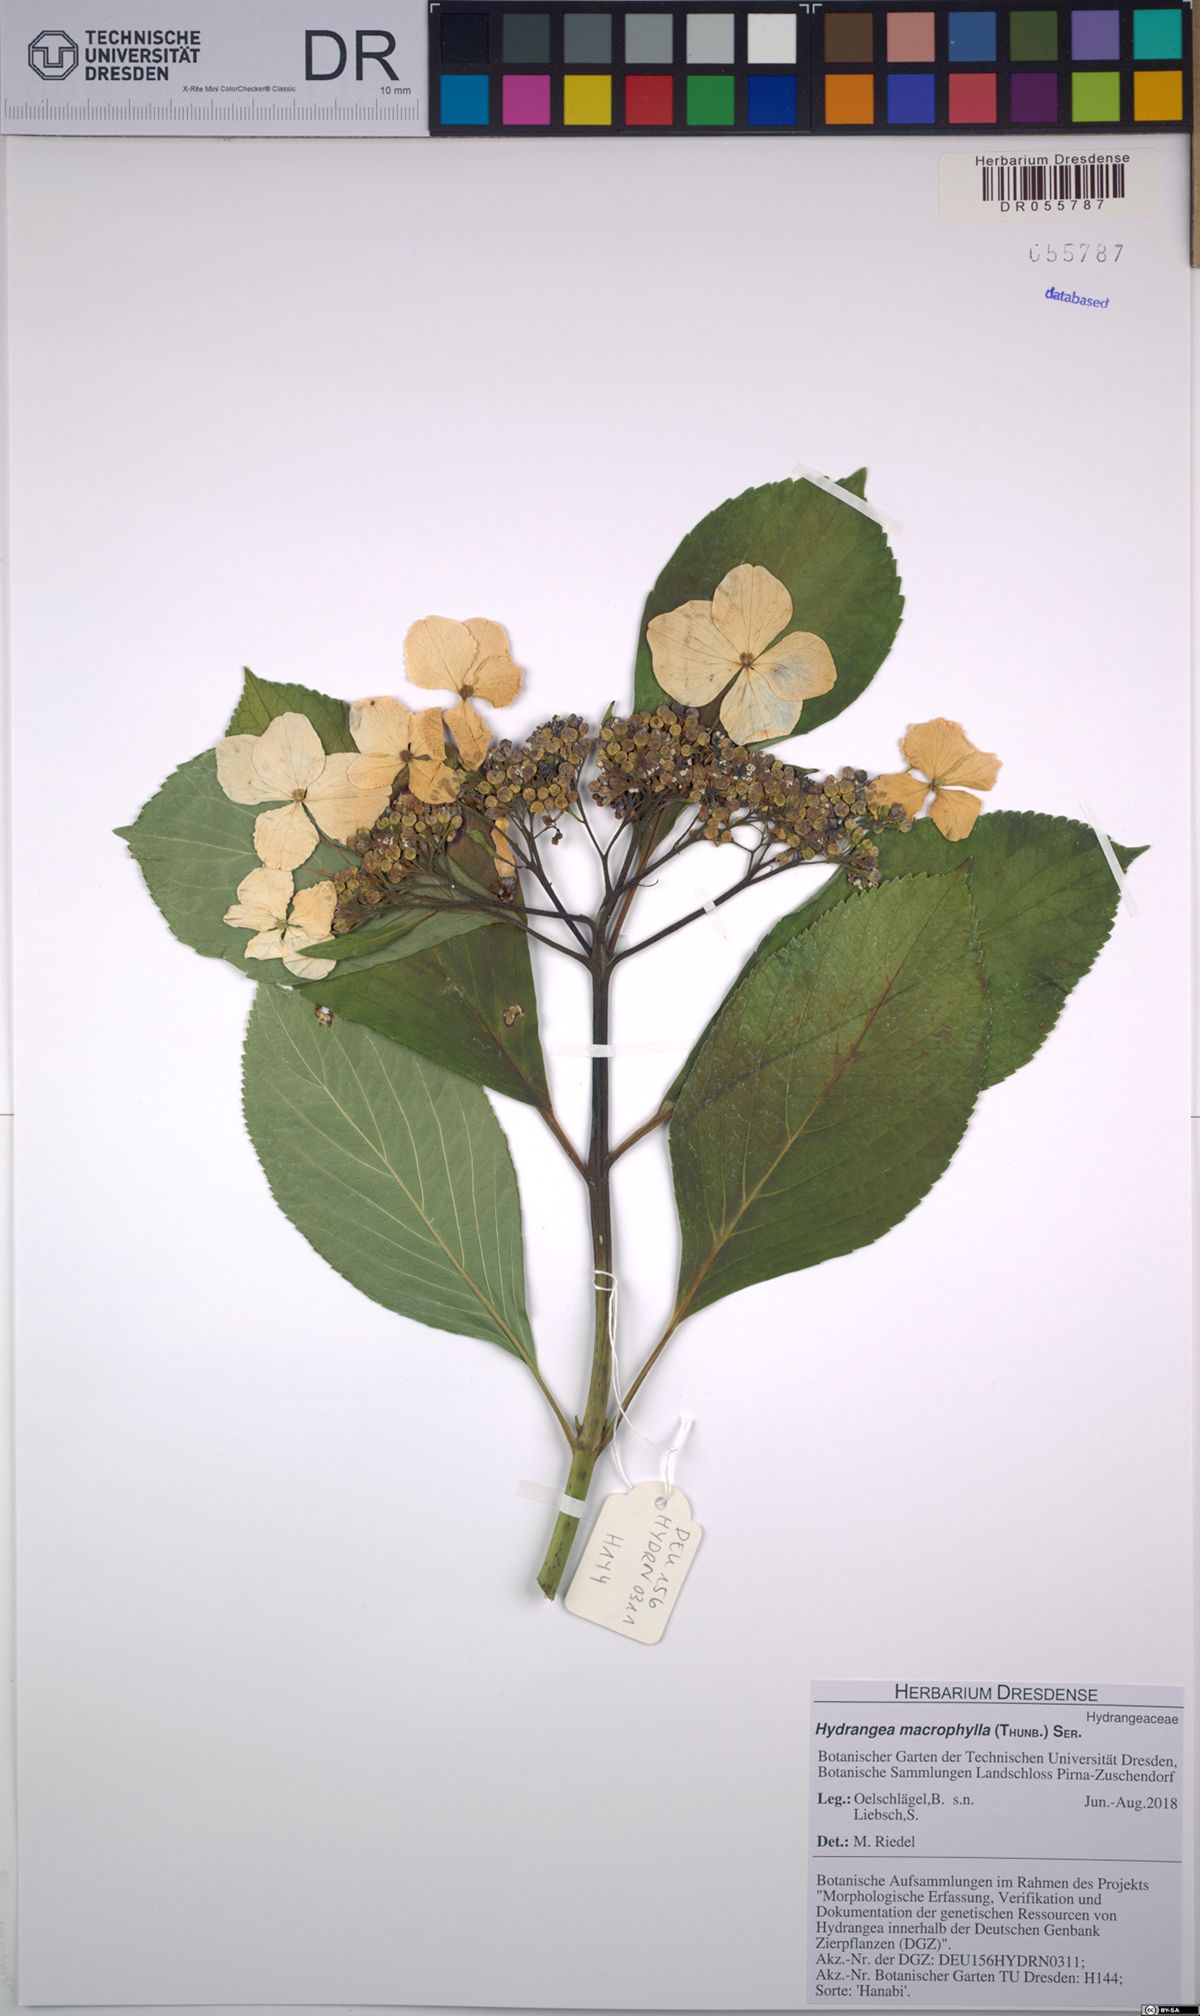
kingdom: Plantae
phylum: Tracheophyta
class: Magnoliopsida
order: Cornales
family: Hydrangeaceae
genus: Hydrangea
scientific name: Hydrangea macrophylla
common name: Hydrangea
